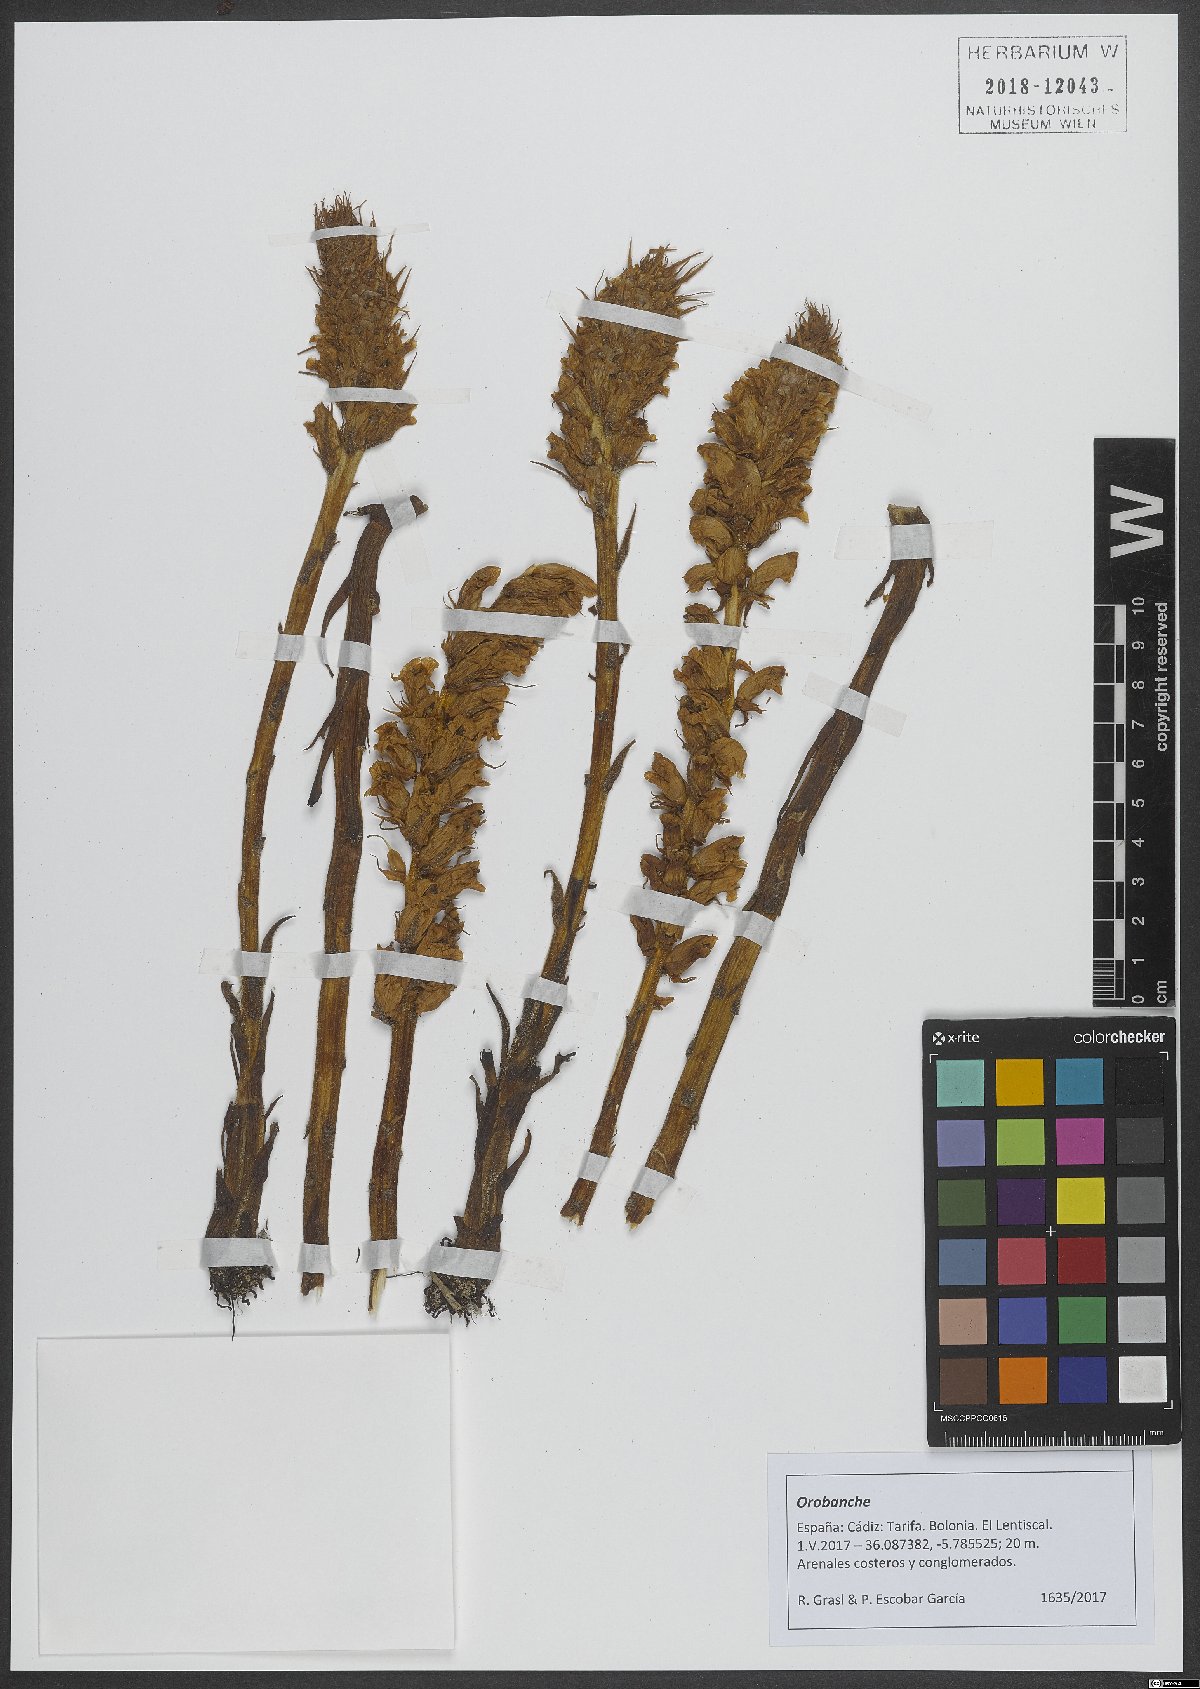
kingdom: Plantae
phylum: Tracheophyta
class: Magnoliopsida
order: Lamiales
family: Orobanchaceae
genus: Orobanche
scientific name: Orobanche
